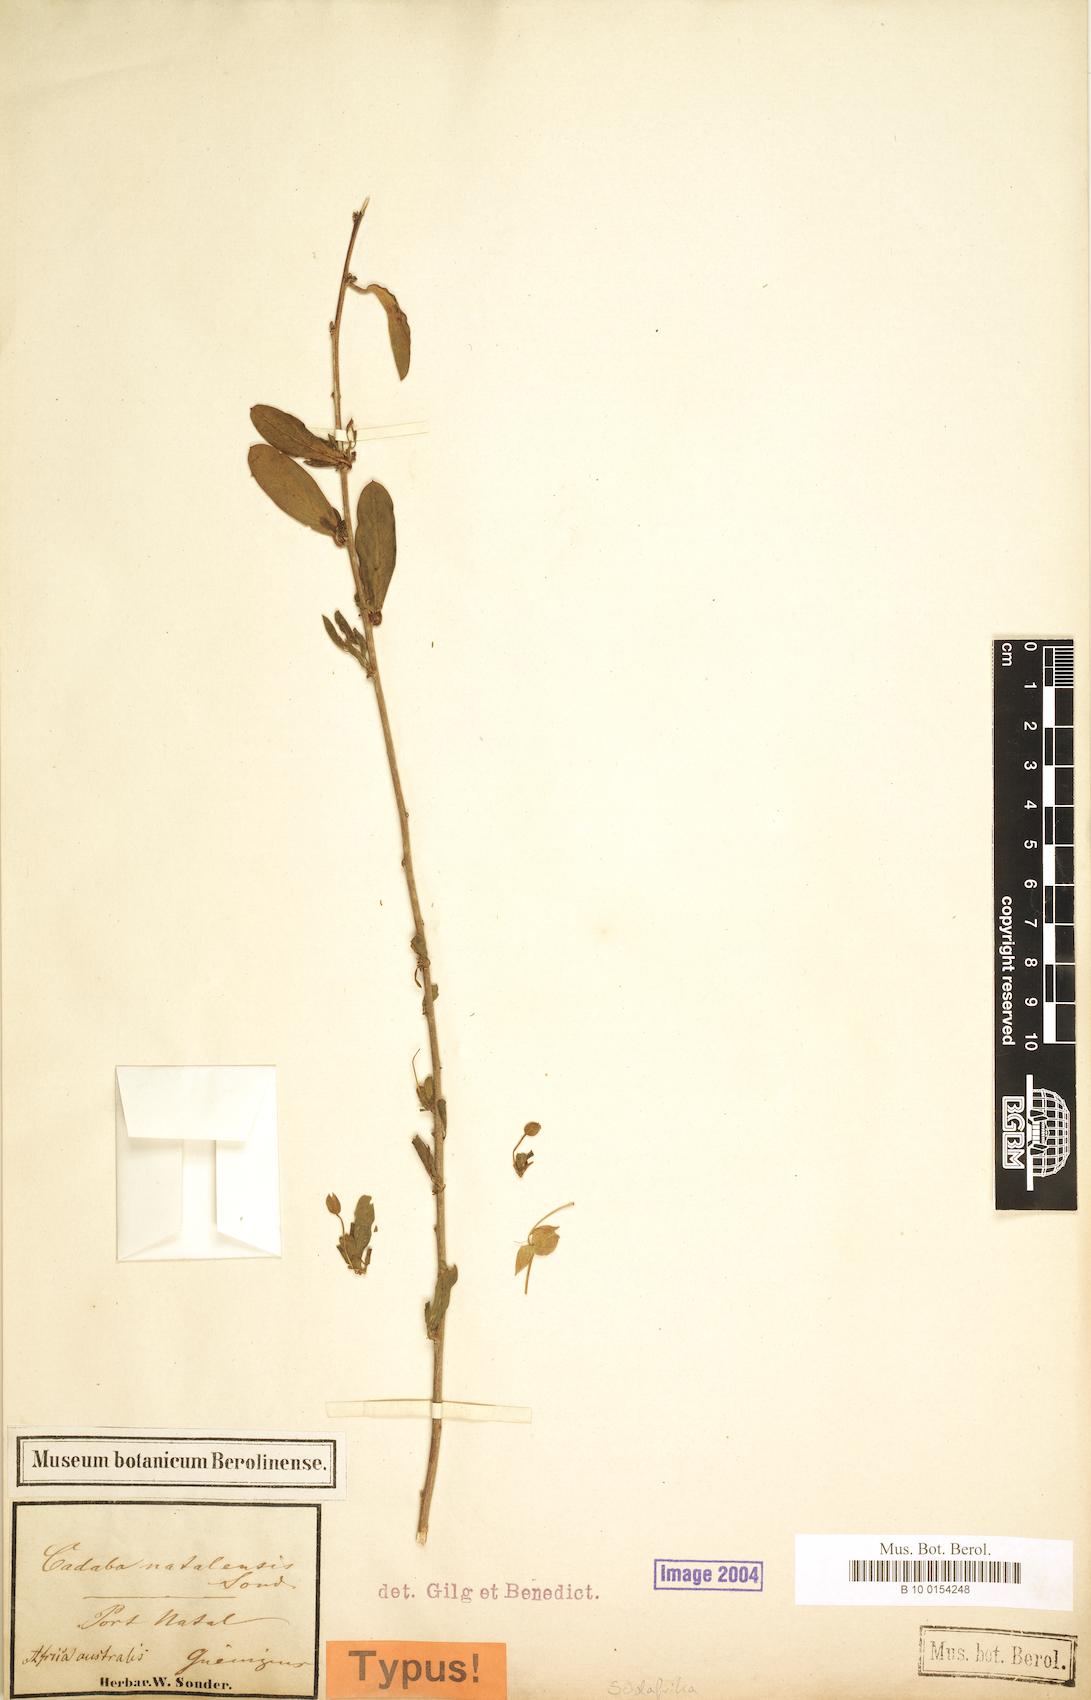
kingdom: Plantae
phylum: Tracheophyta
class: Magnoliopsida
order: Brassicales
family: Capparaceae
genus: Cadaba
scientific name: Cadaba natalensis
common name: Natal worm bush
